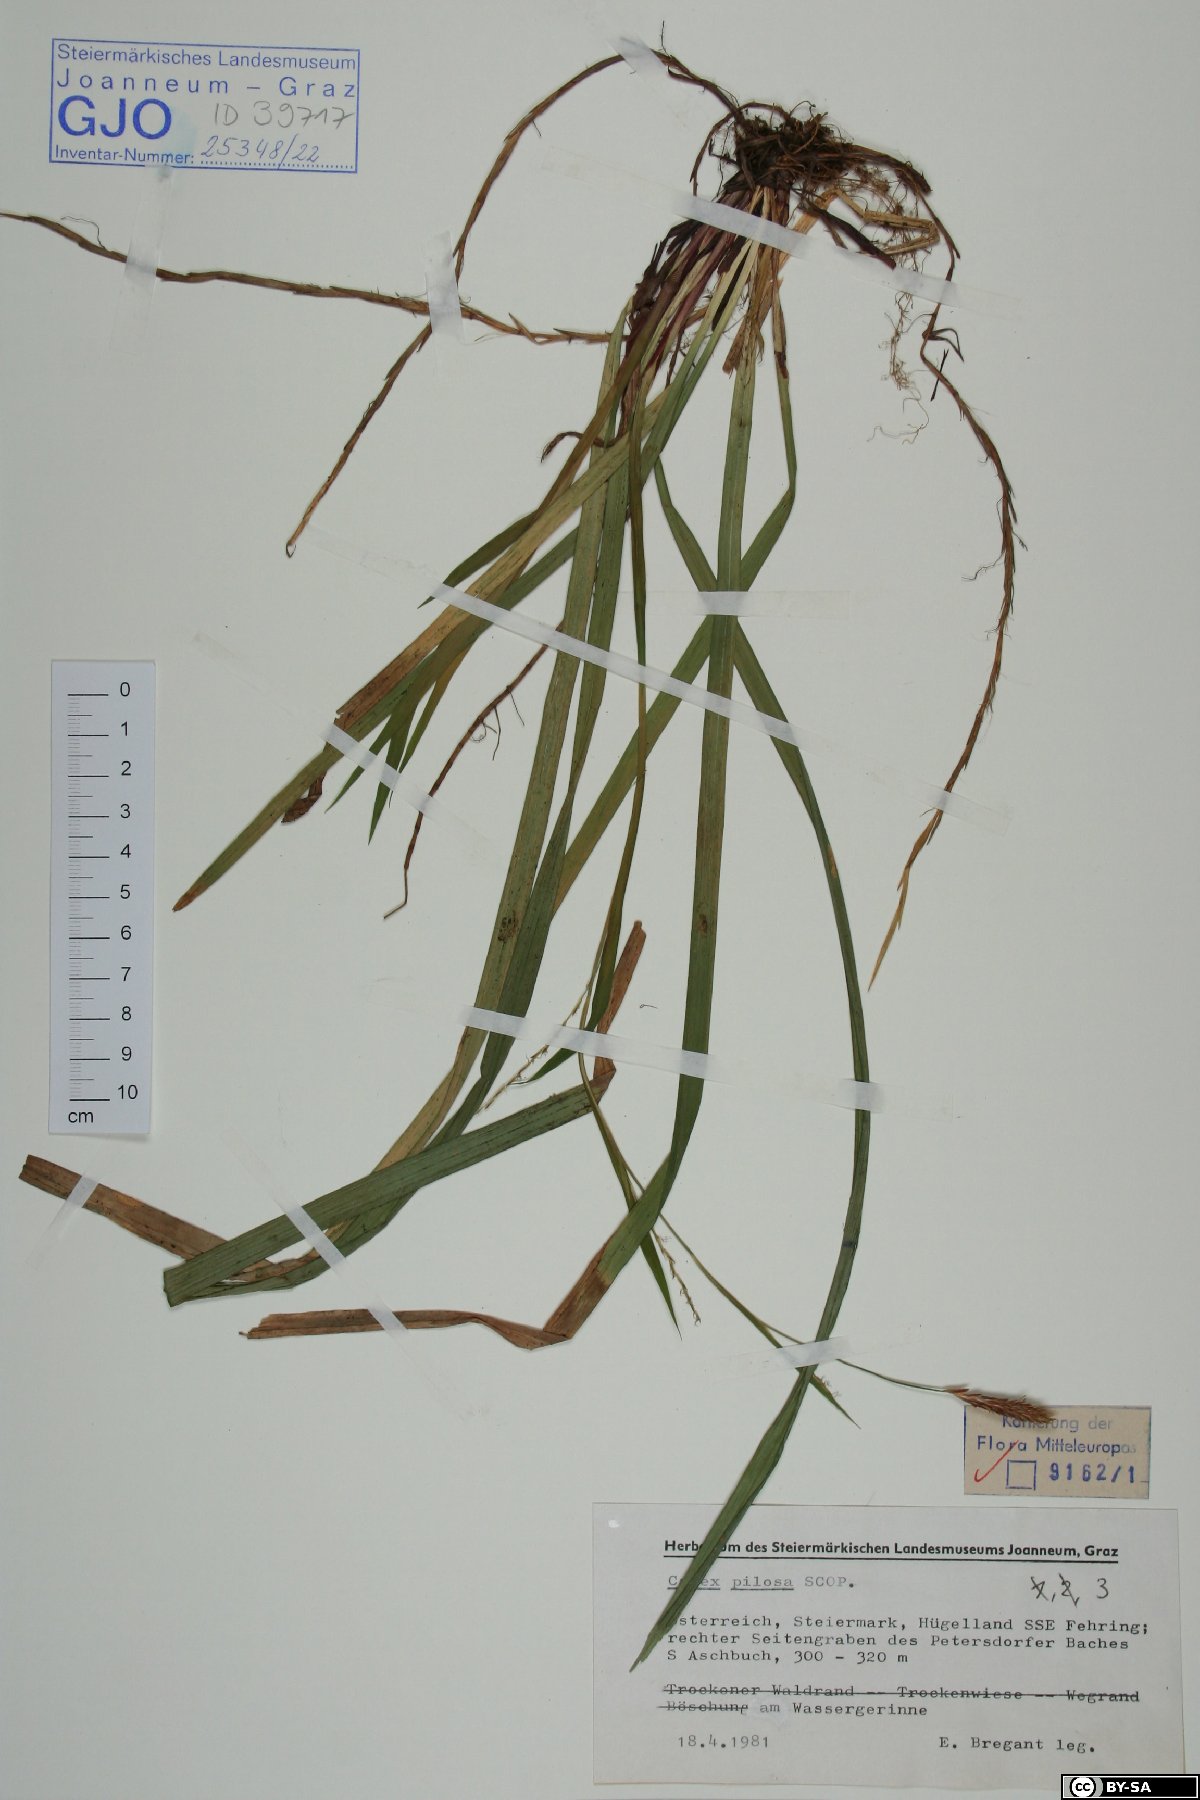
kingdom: Plantae
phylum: Tracheophyta
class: Liliopsida
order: Poales
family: Cyperaceae
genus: Carex
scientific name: Carex pilosa
